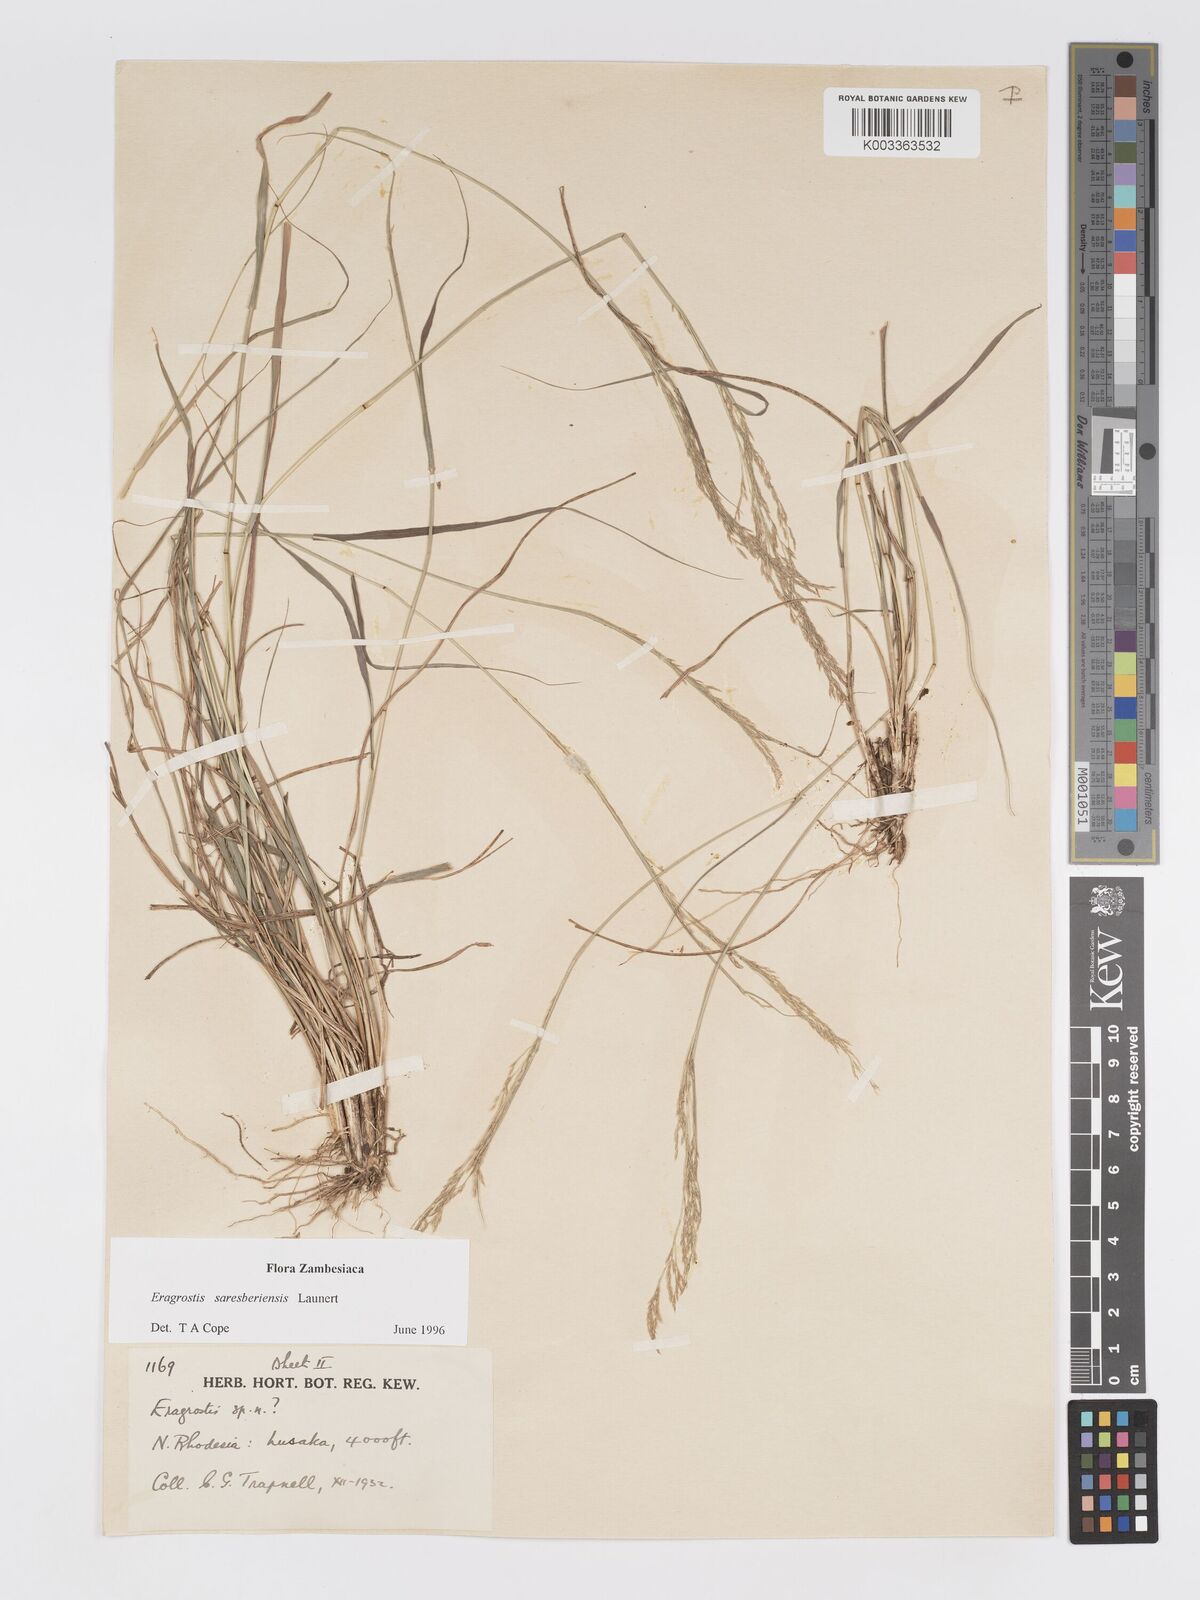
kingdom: Plantae
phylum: Tracheophyta
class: Liliopsida
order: Poales
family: Poaceae
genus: Eragrostis
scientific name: Eragrostis saresberiensis
